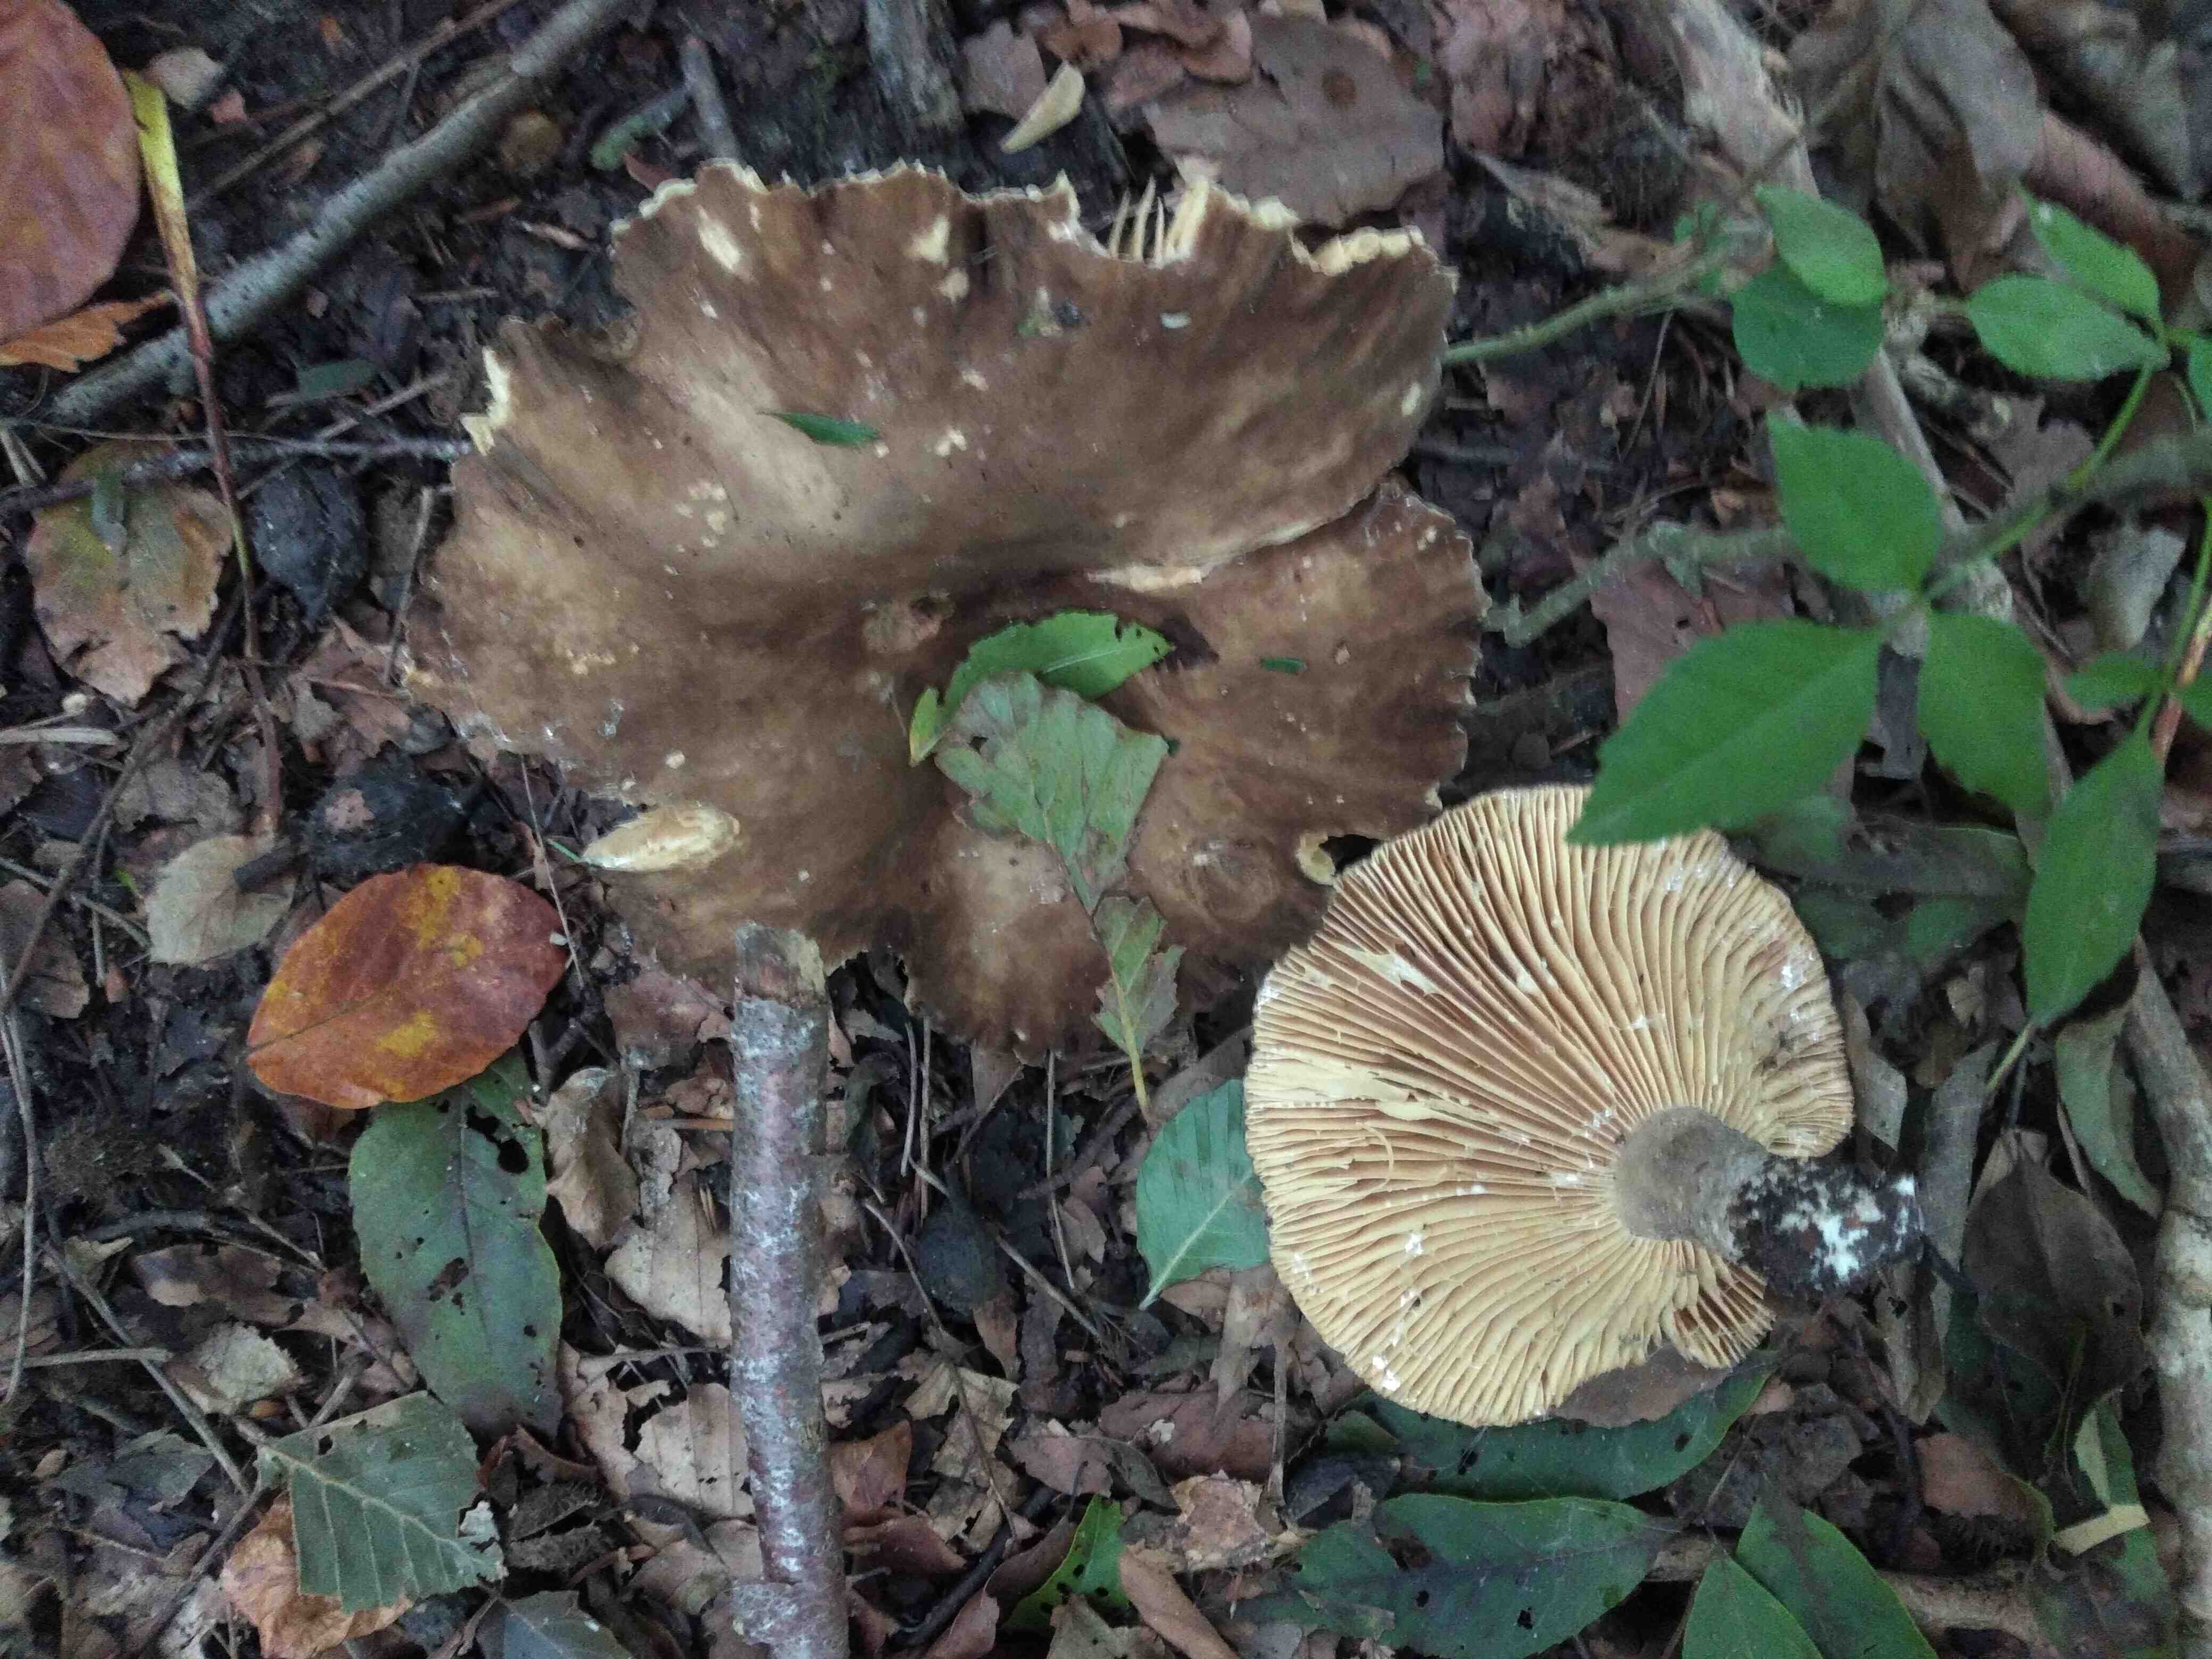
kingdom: Fungi
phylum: Basidiomycota
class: Agaricomycetes
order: Russulales
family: Russulaceae
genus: Lactarius
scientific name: Lactarius romagnesii
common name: fjernbladet mælkehat
